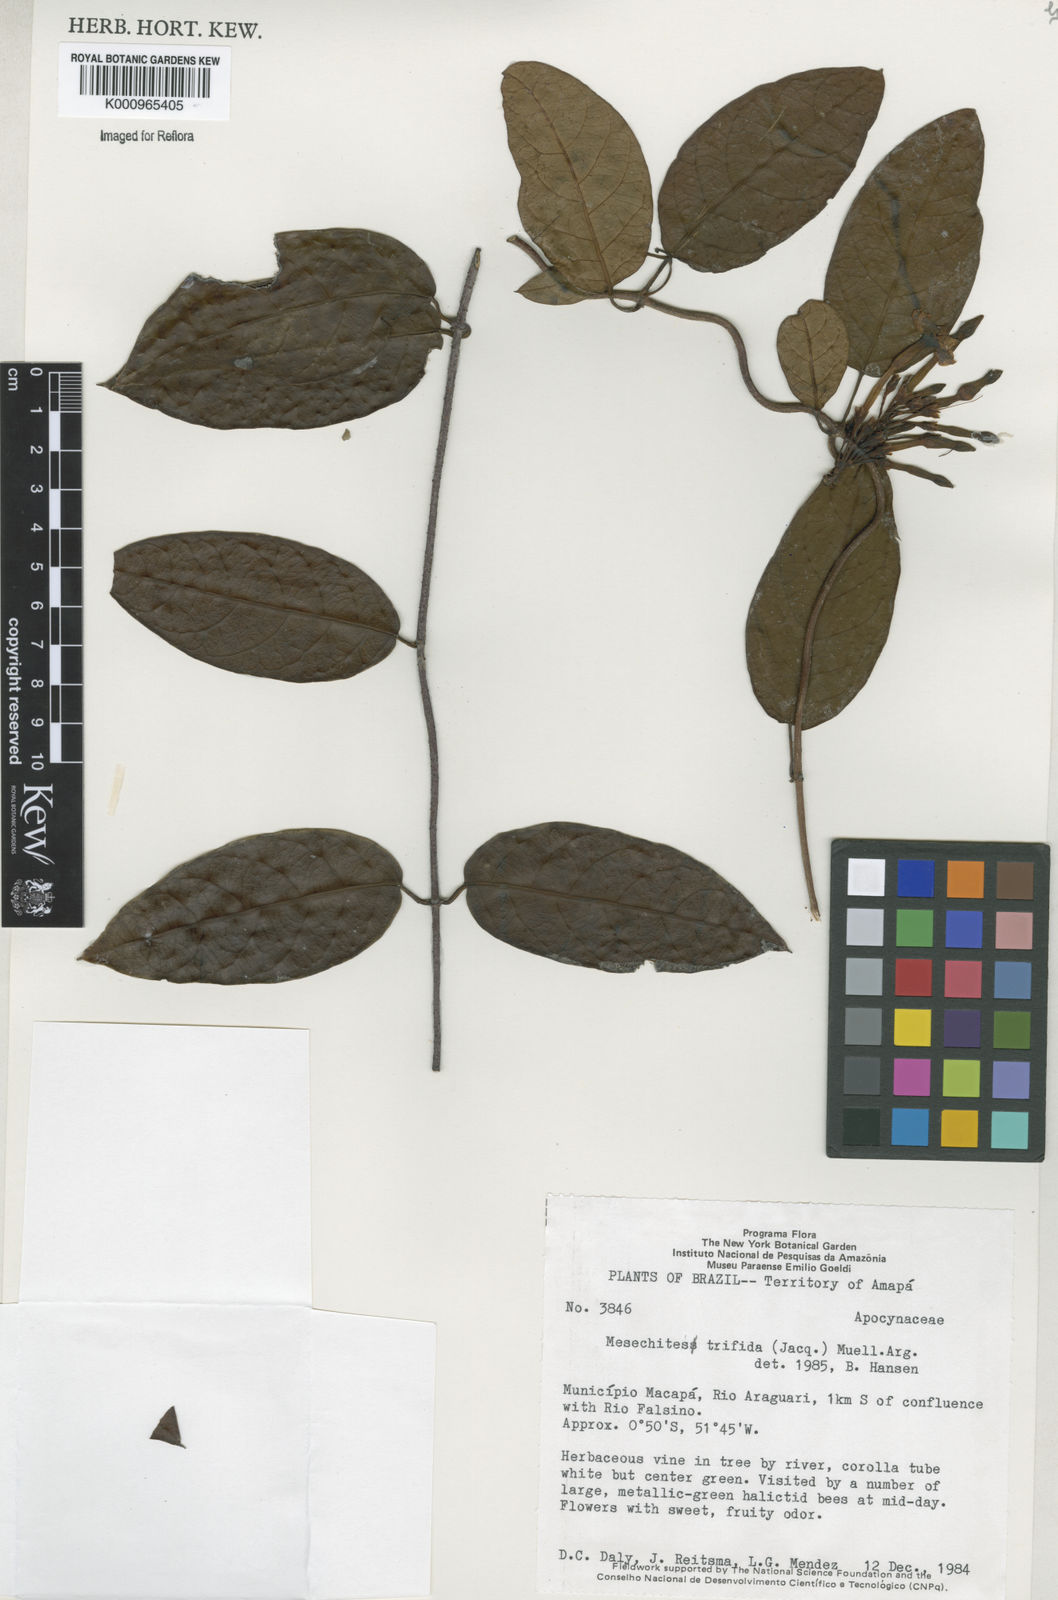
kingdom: Plantae
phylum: Tracheophyta
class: Magnoliopsida
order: Gentianales
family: Apocynaceae
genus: Mesechites
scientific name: Mesechites
